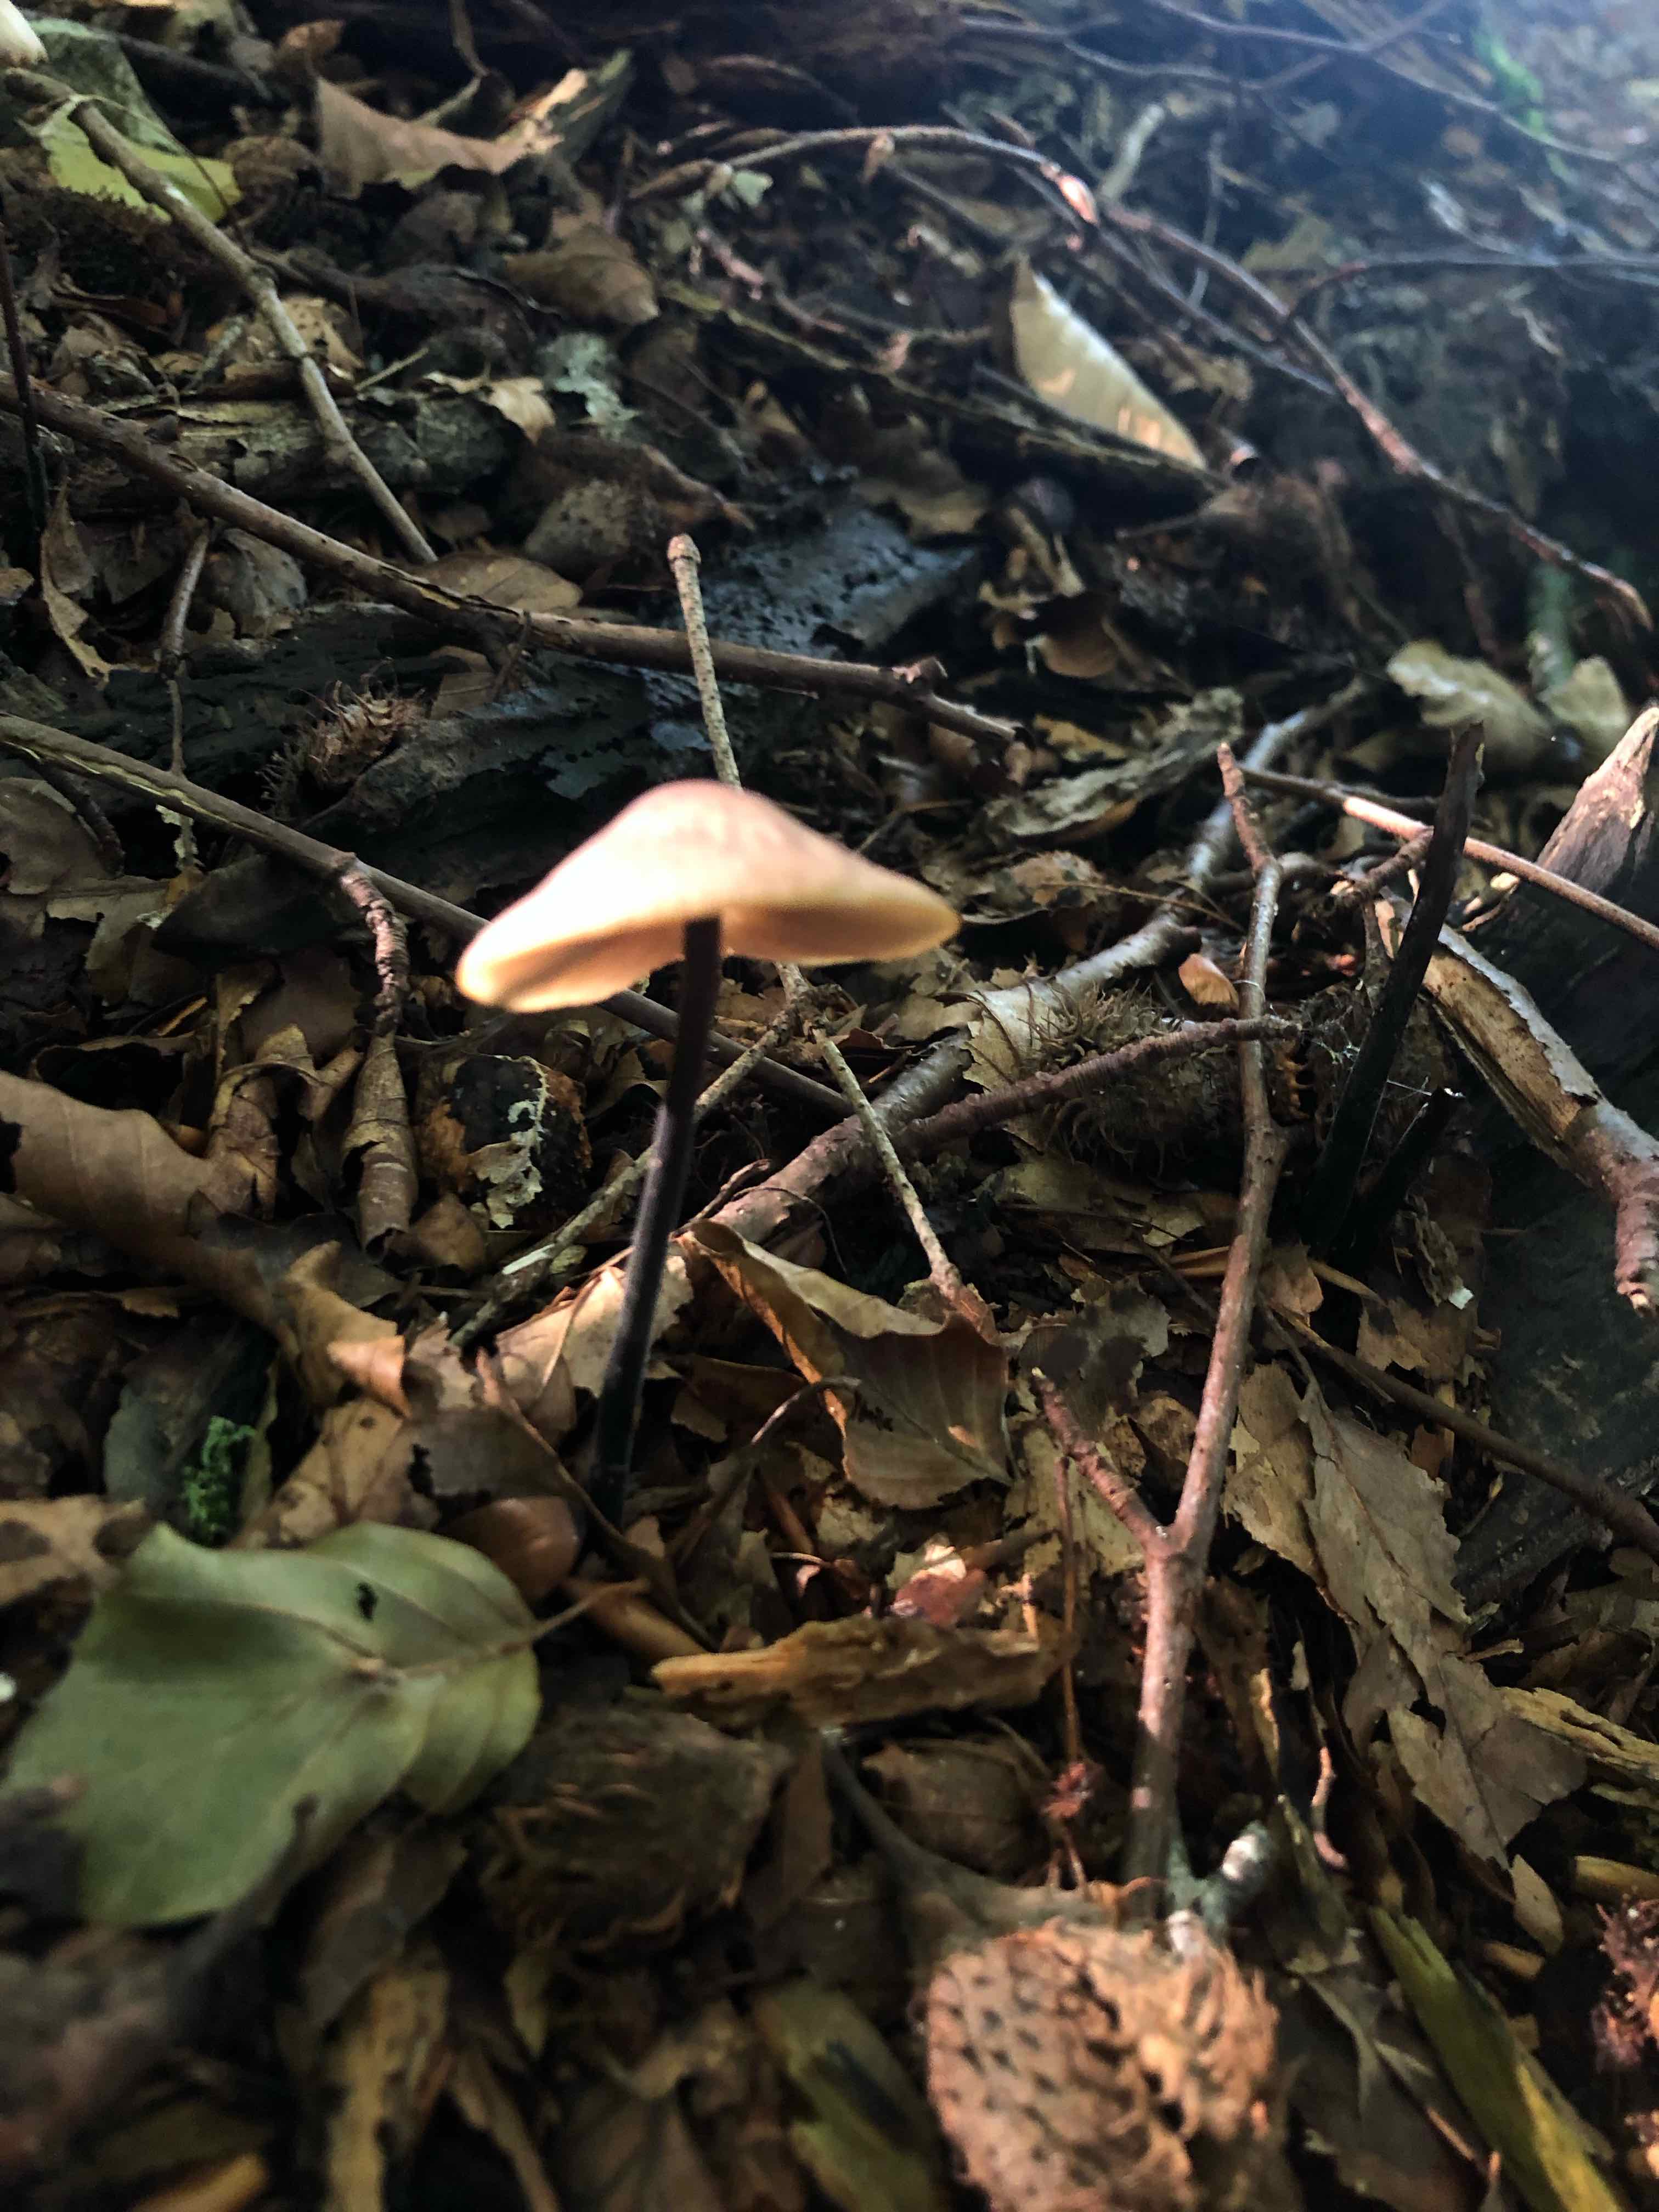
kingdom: Fungi
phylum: Basidiomycota
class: Agaricomycetes
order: Agaricales
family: Omphalotaceae
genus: Mycetinis
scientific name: Mycetinis alliaceus
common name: stor løghat
